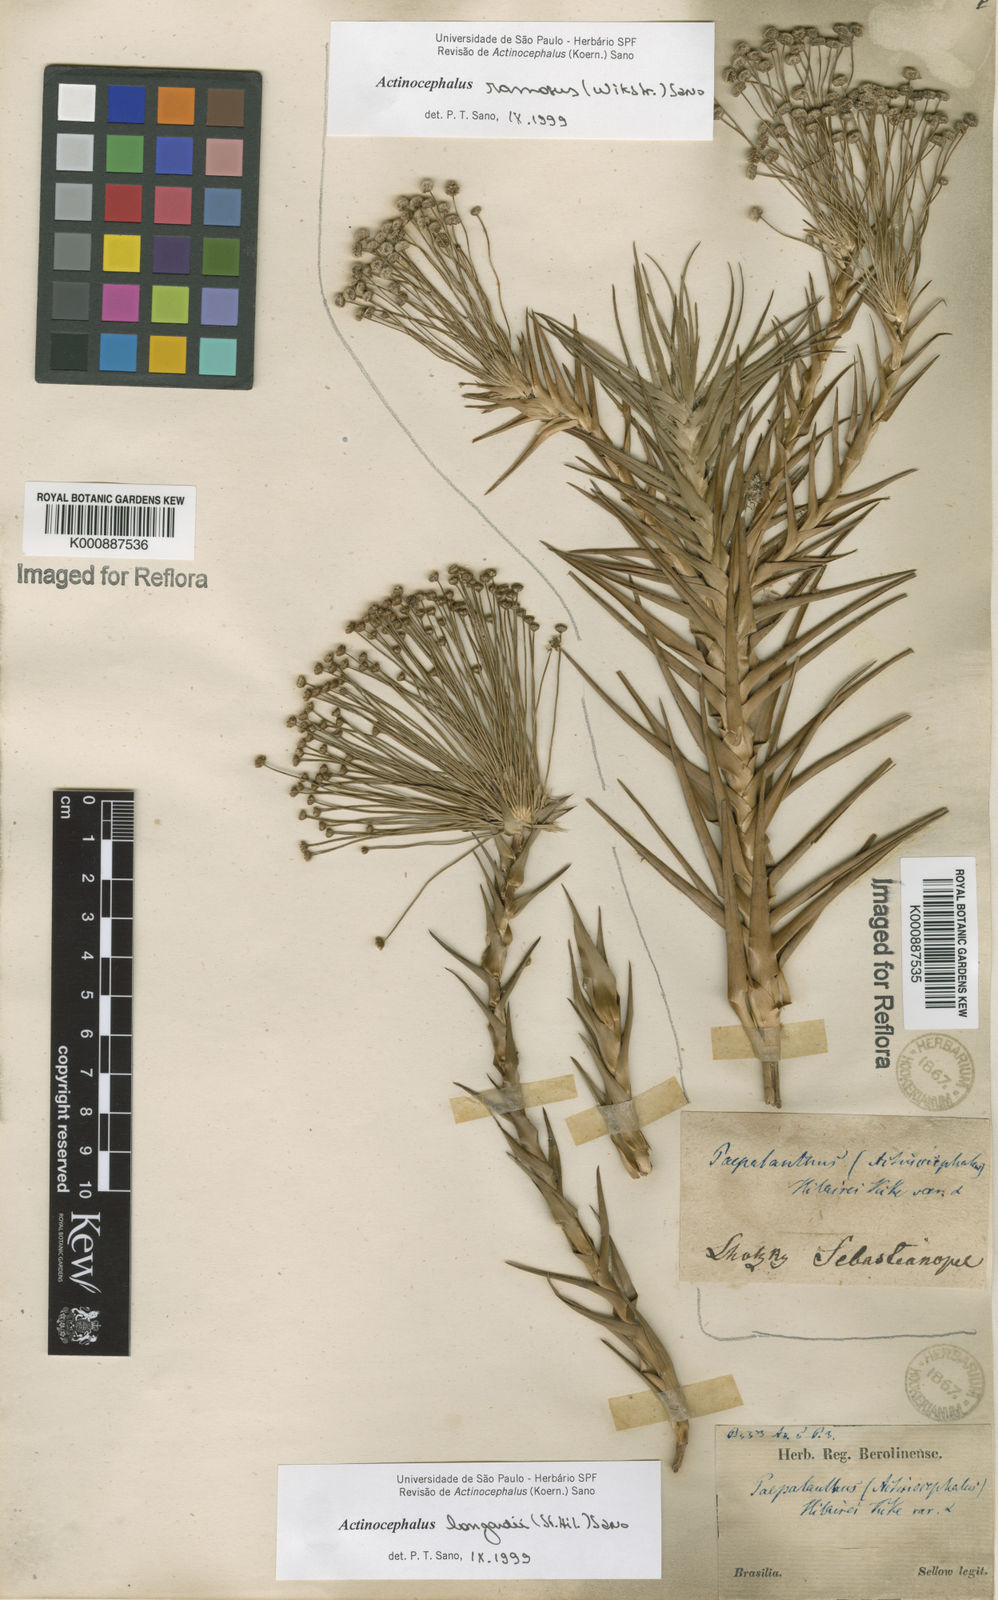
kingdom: Plantae
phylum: Tracheophyta
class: Liliopsida
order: Poales
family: Eriocaulaceae
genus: Paepalanthus
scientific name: Paepalanthus hilairei
